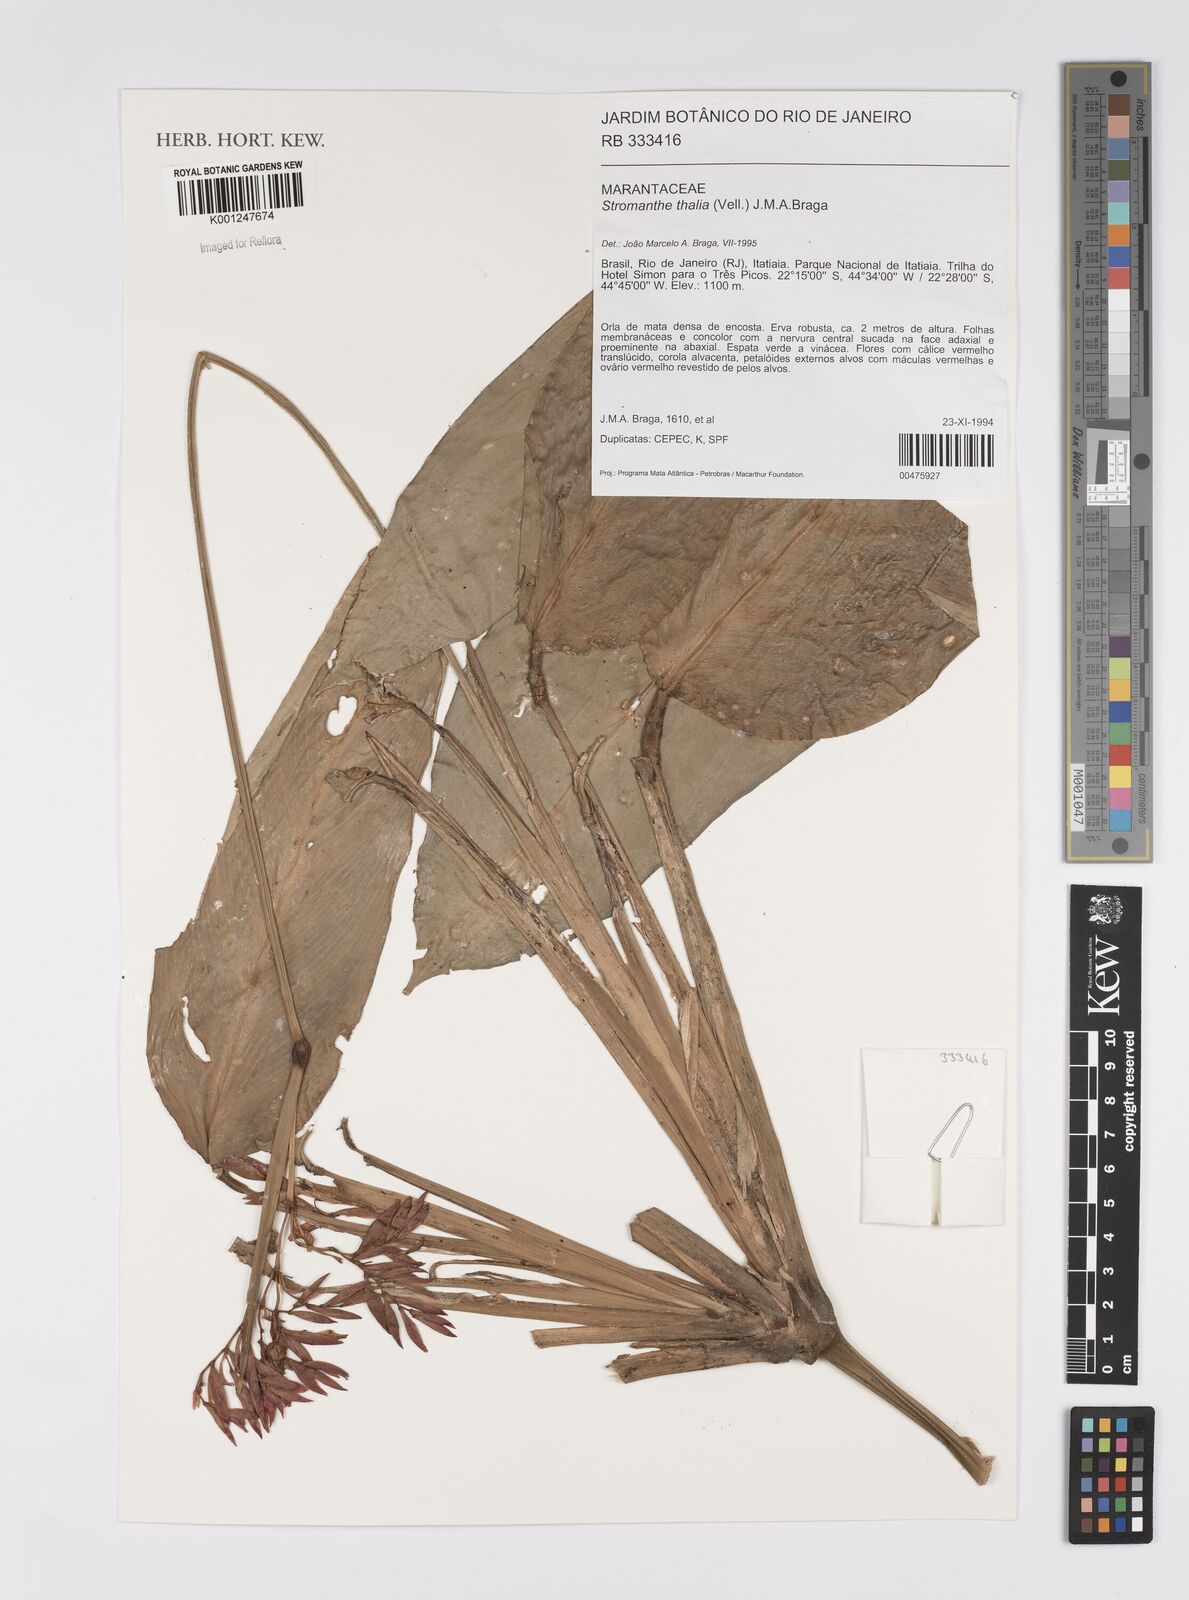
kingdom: Plantae
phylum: Tracheophyta
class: Liliopsida
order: Zingiberales
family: Marantaceae
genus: Stromanthe
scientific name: Stromanthe thalia
